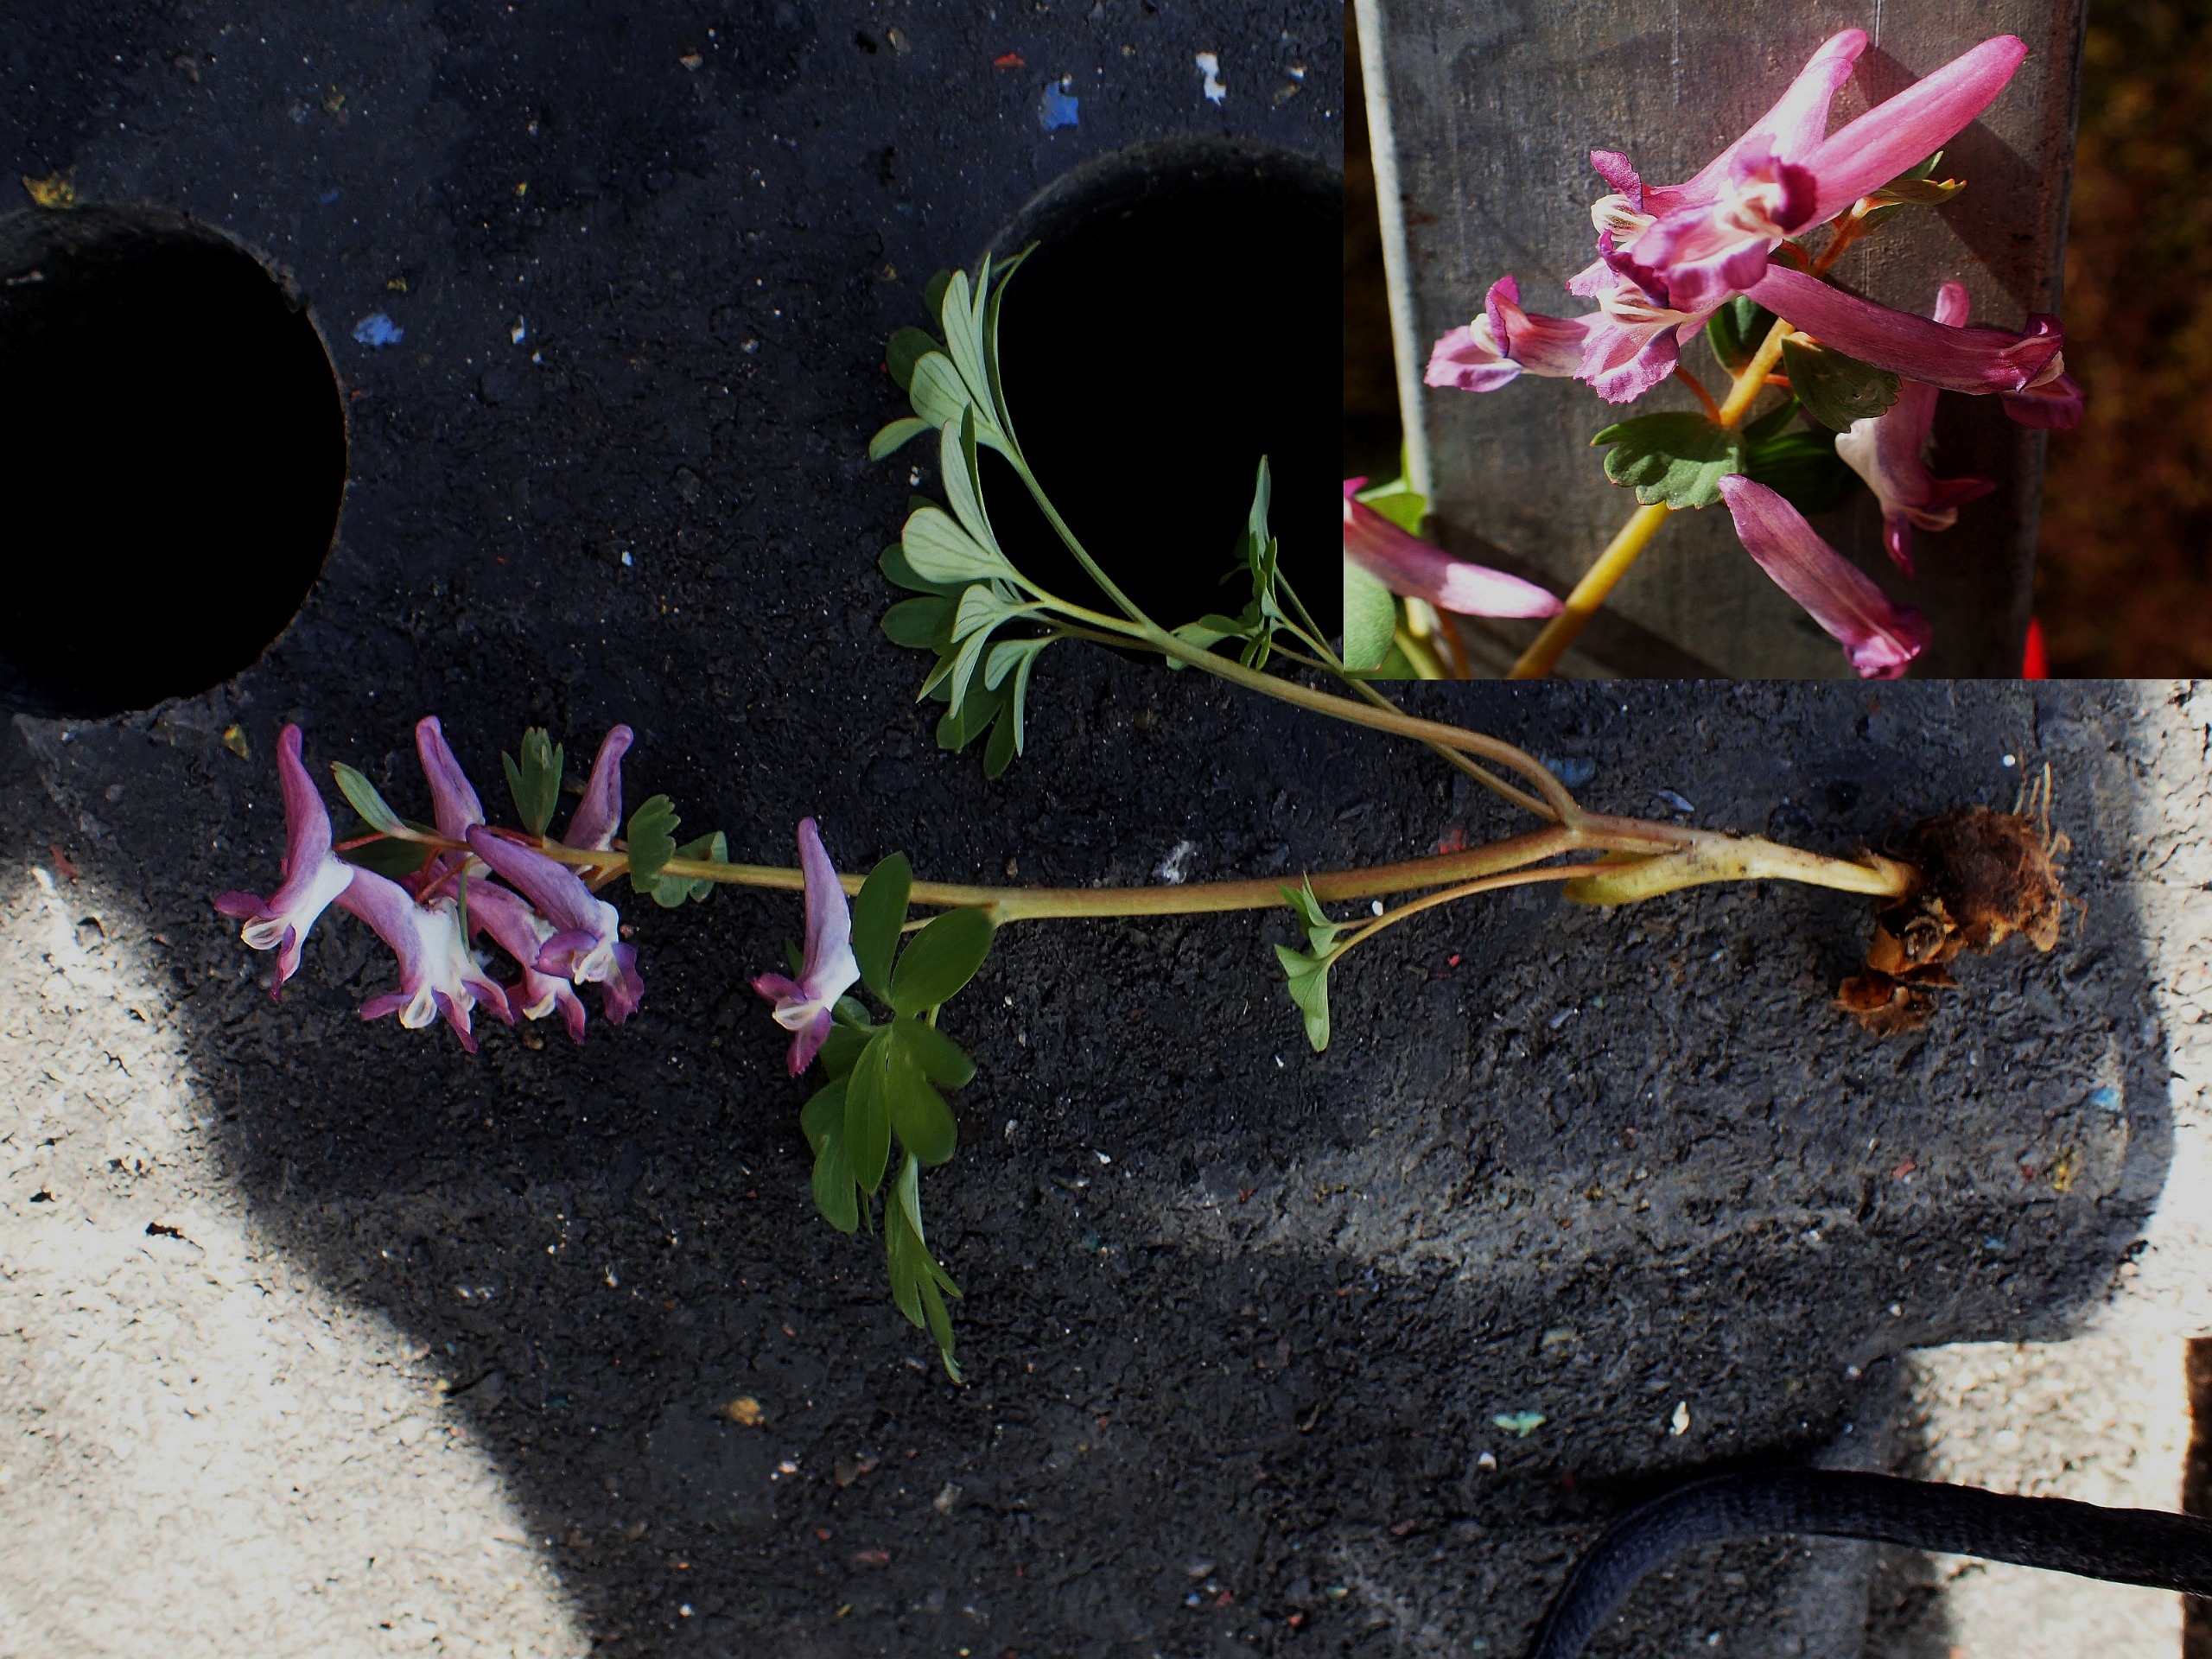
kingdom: Plantae
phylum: Tracheophyta
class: Magnoliopsida
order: Ranunculales
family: Papaveraceae
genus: Corydalis
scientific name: Corydalis solida
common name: Langstilket lærkespore
